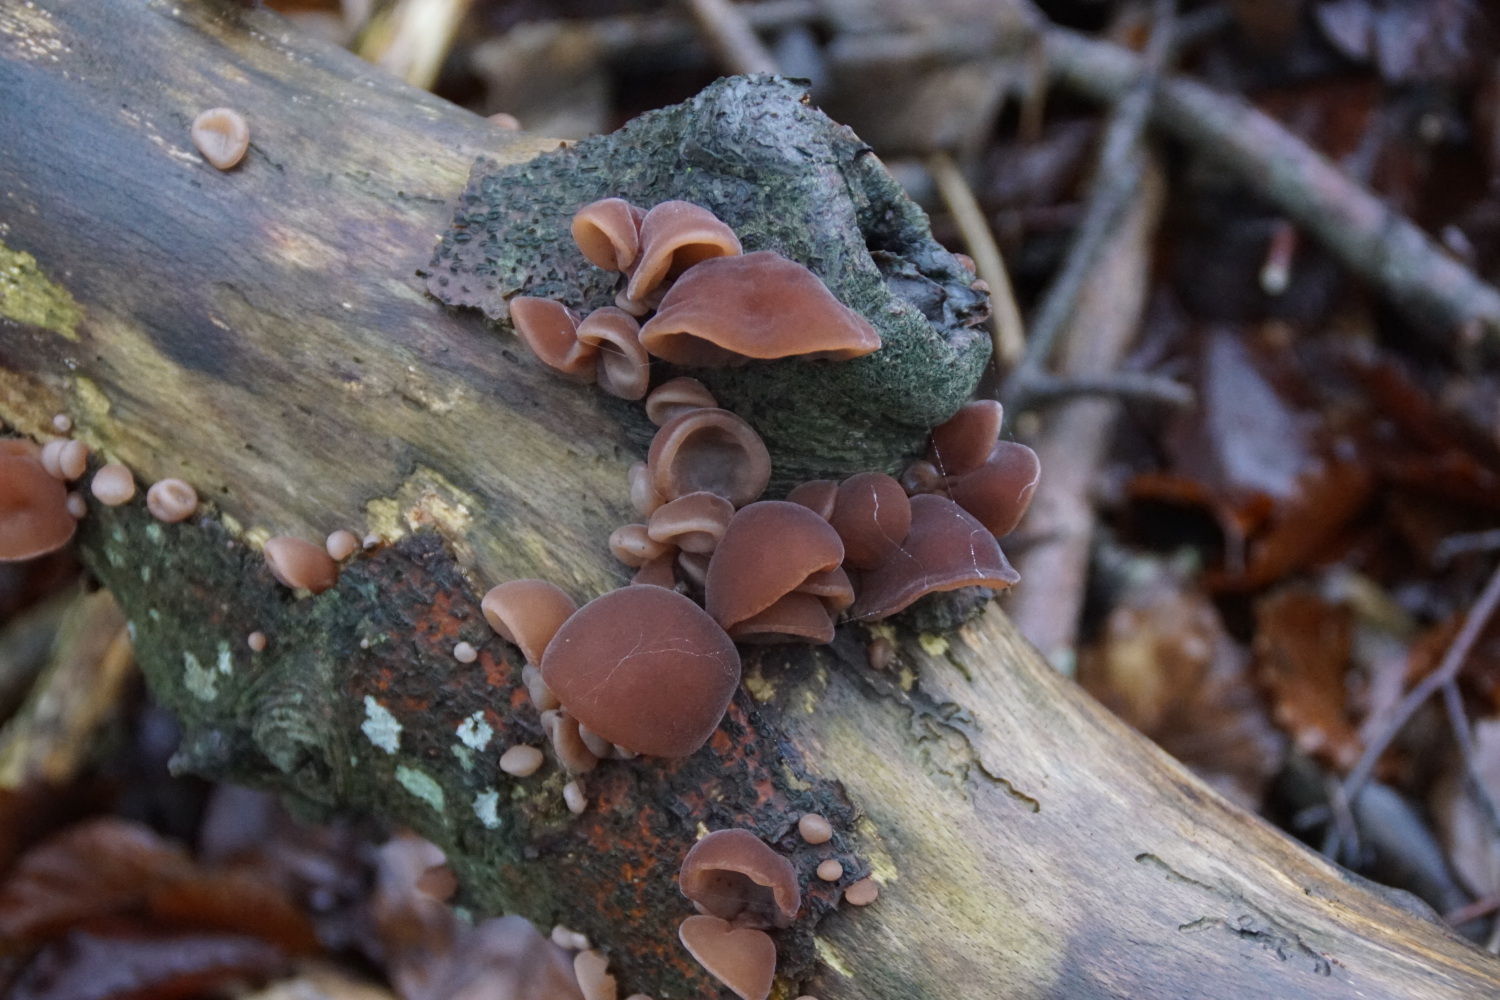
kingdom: Fungi
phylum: Basidiomycota
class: Agaricomycetes
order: Auriculariales
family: Auriculariaceae
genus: Auricularia
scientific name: Auricularia auricula-judae
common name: almindelig judasøre
